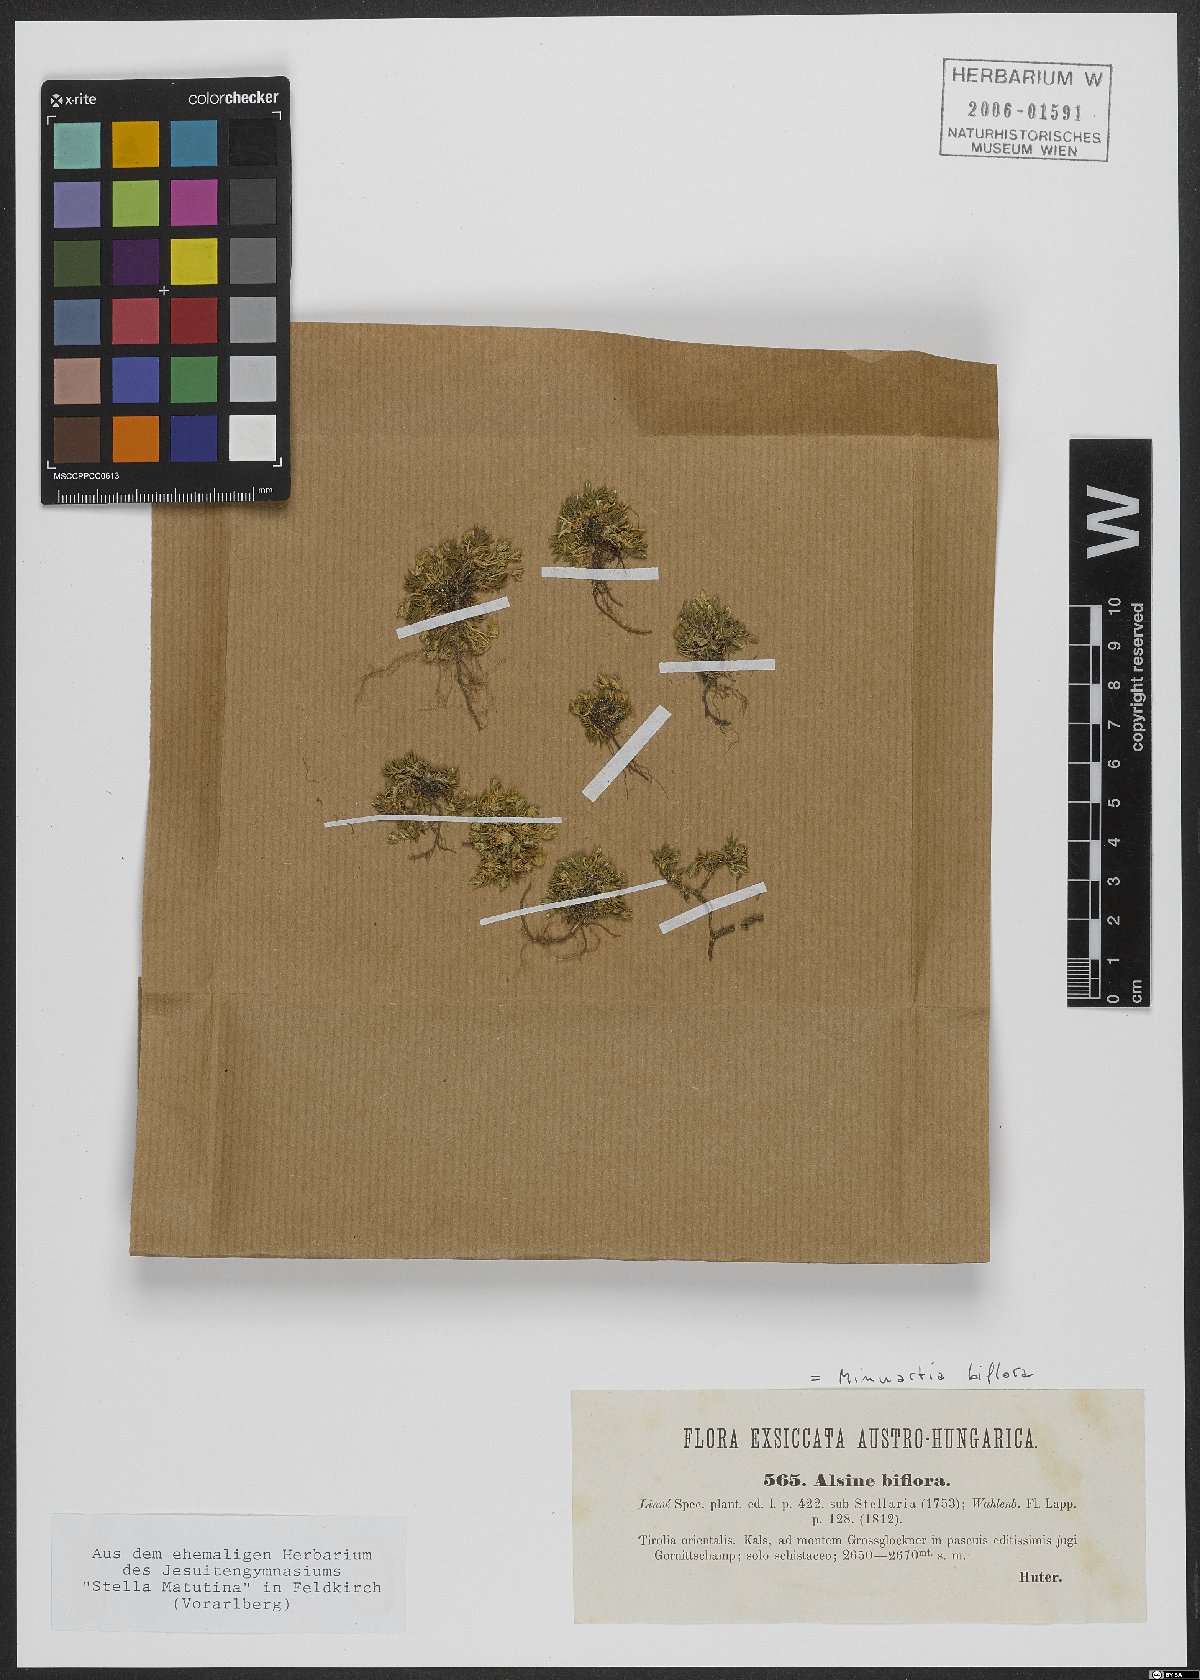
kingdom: Plantae
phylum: Tracheophyta
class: Magnoliopsida
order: Caryophyllales
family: Caryophyllaceae
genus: Cherleria
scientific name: Cherleria biflora
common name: Mountain sandwort
